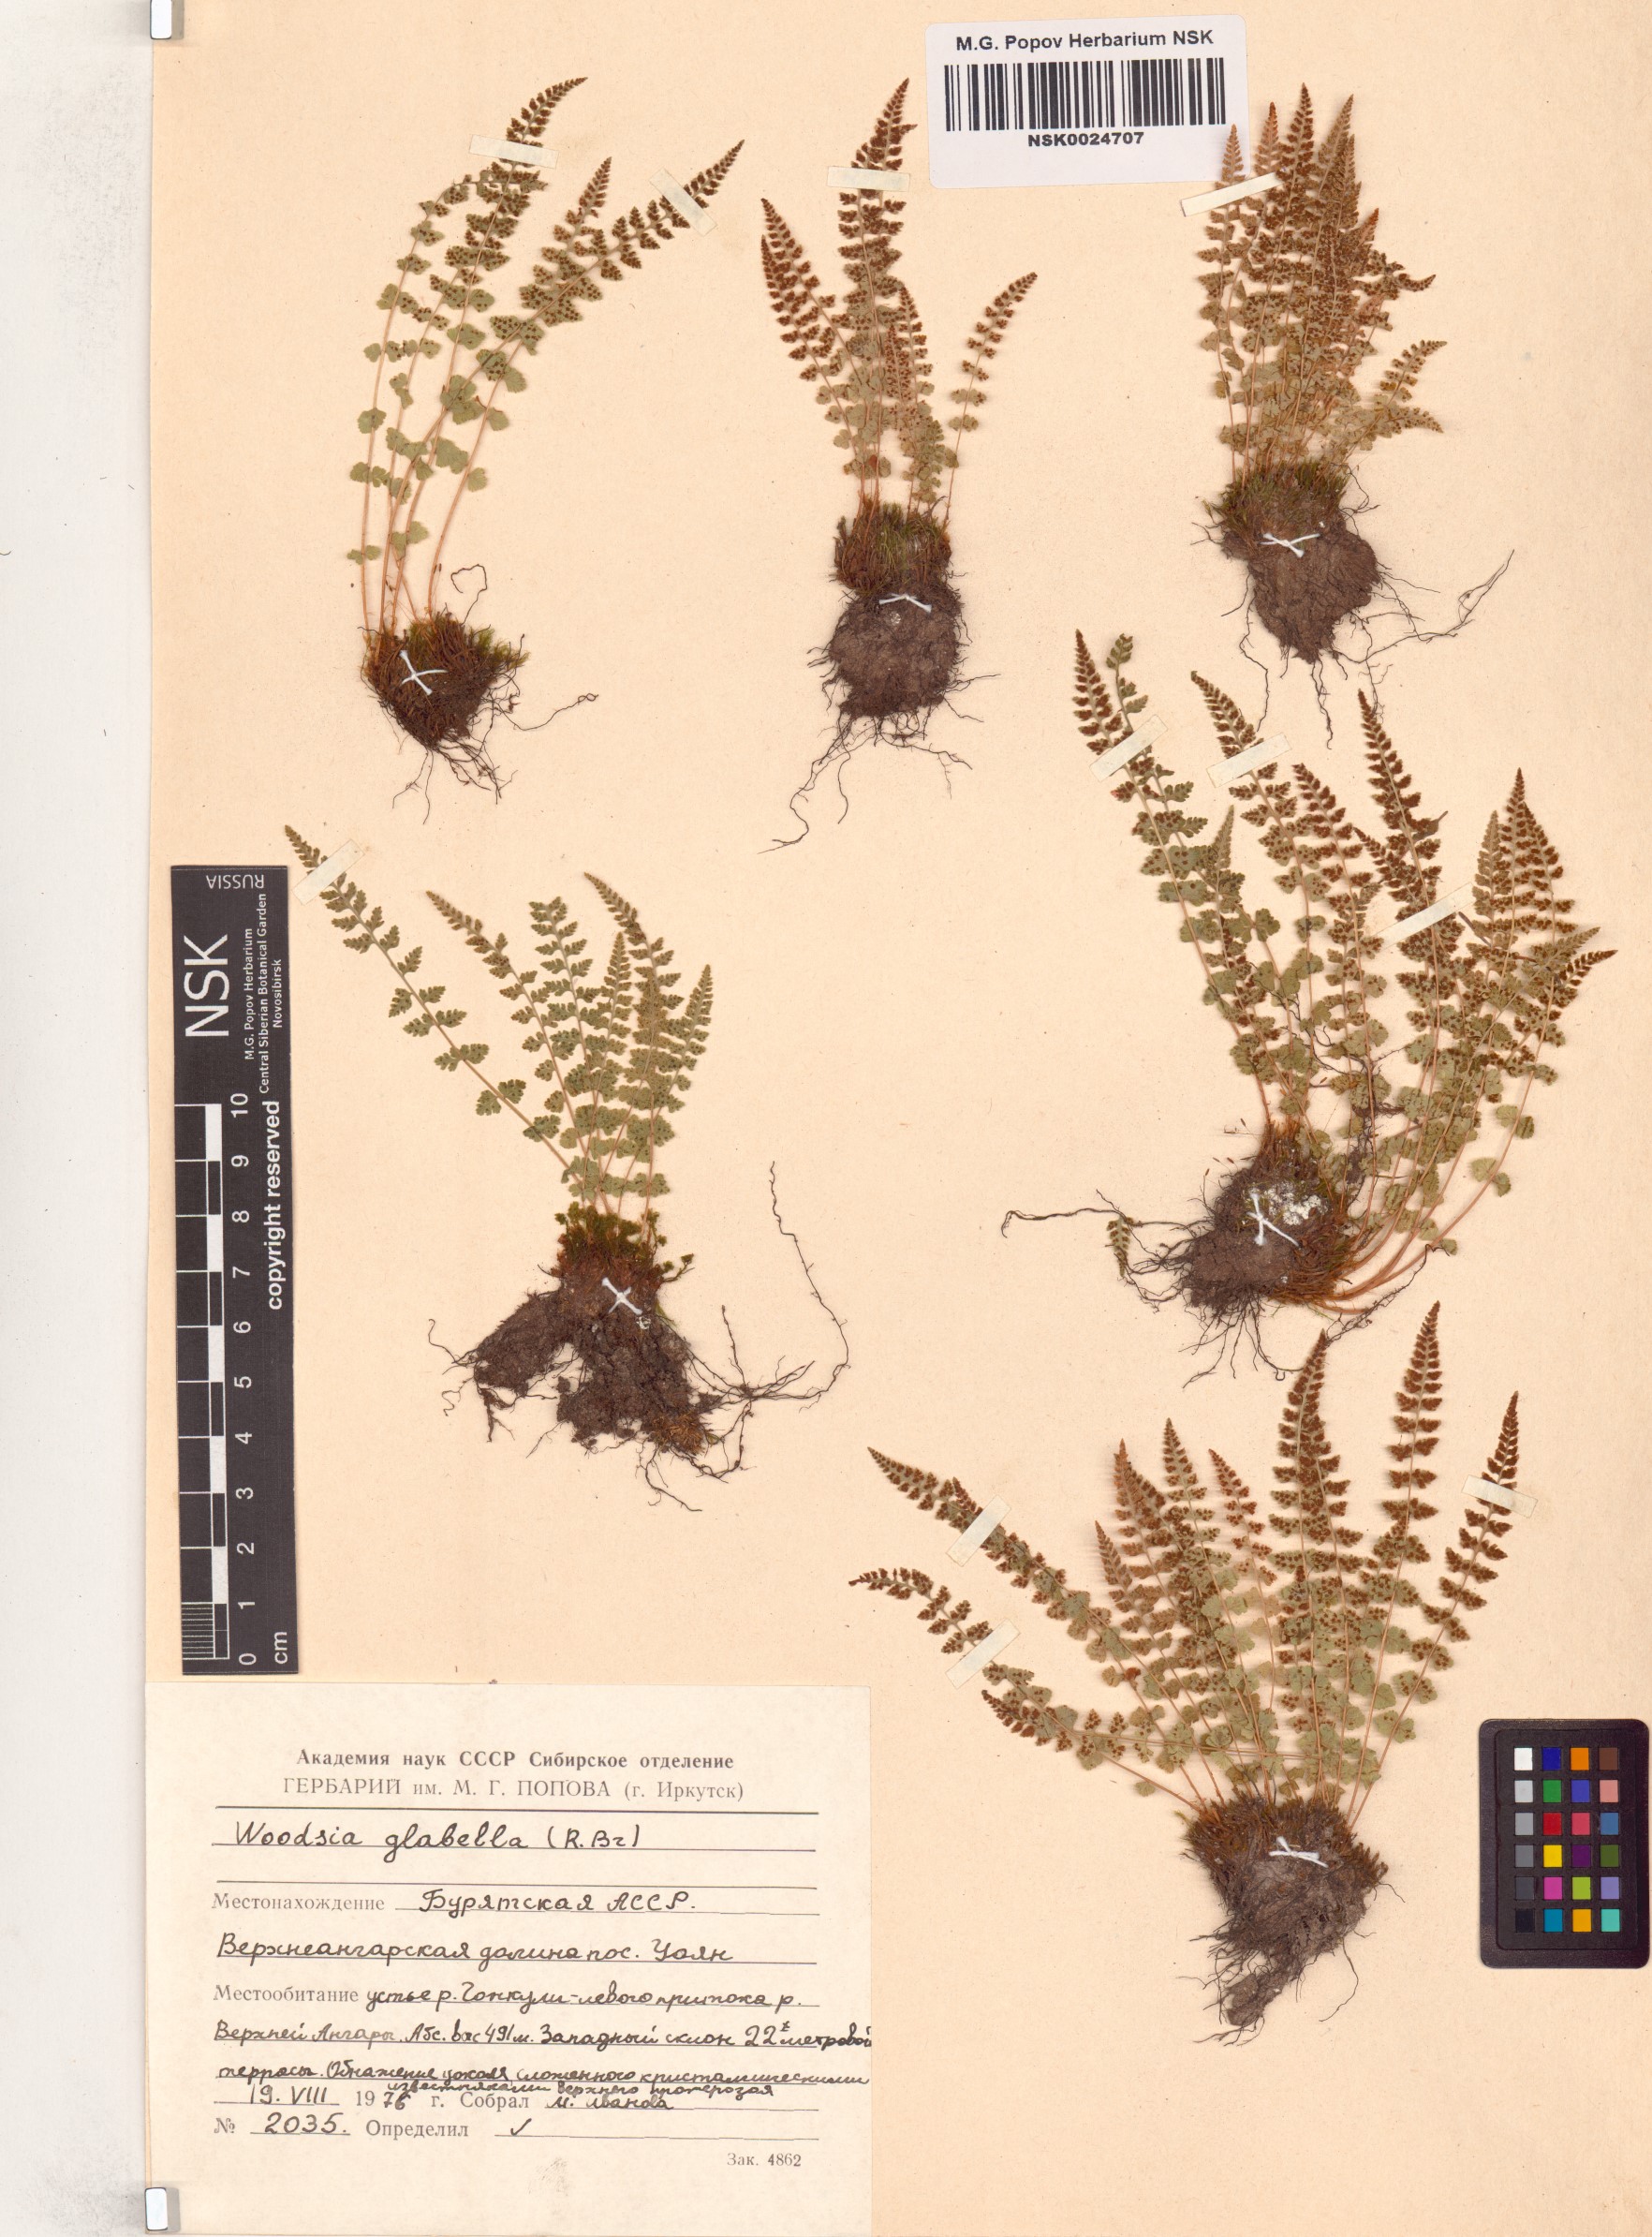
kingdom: Plantae
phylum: Tracheophyta
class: Polypodiopsida
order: Polypodiales
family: Woodsiaceae
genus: Woodsia
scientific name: Woodsia glabella
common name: Smooth woodsia
